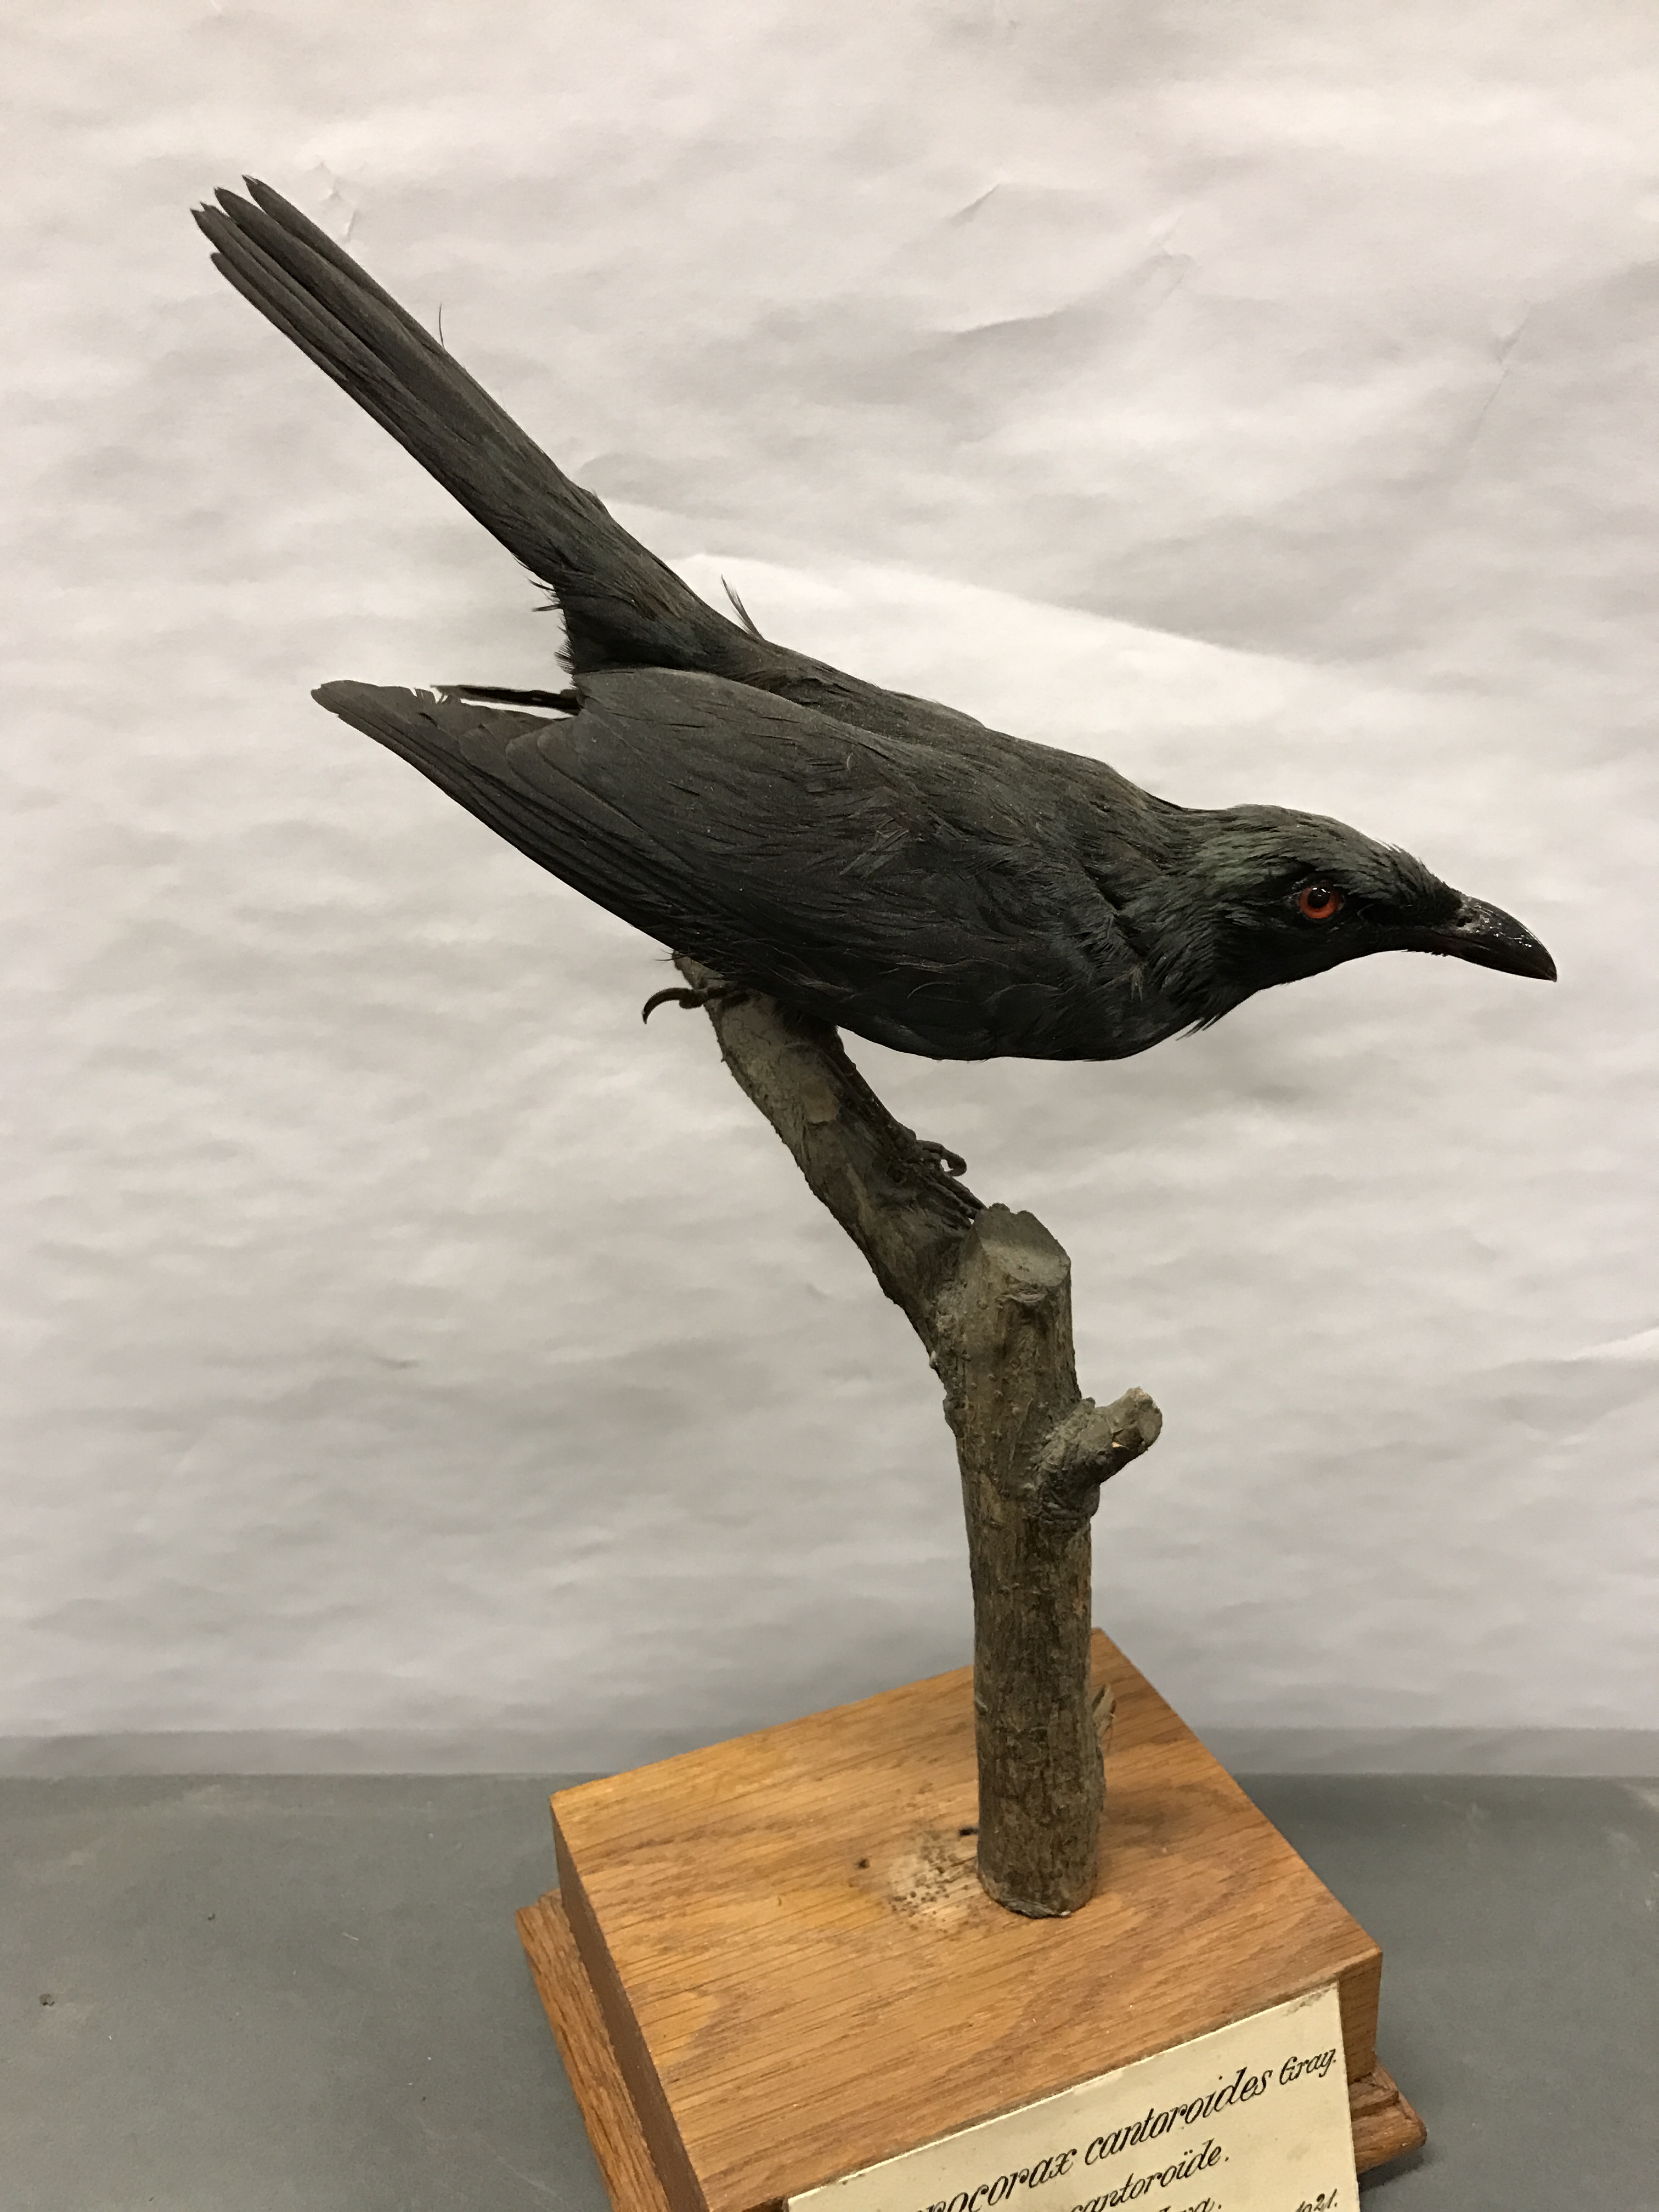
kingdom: Animalia
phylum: Chordata
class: Aves
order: Passeriformes
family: Sturnidae
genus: Aplonis
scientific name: Aplonis cantoroides
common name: Singing starling
